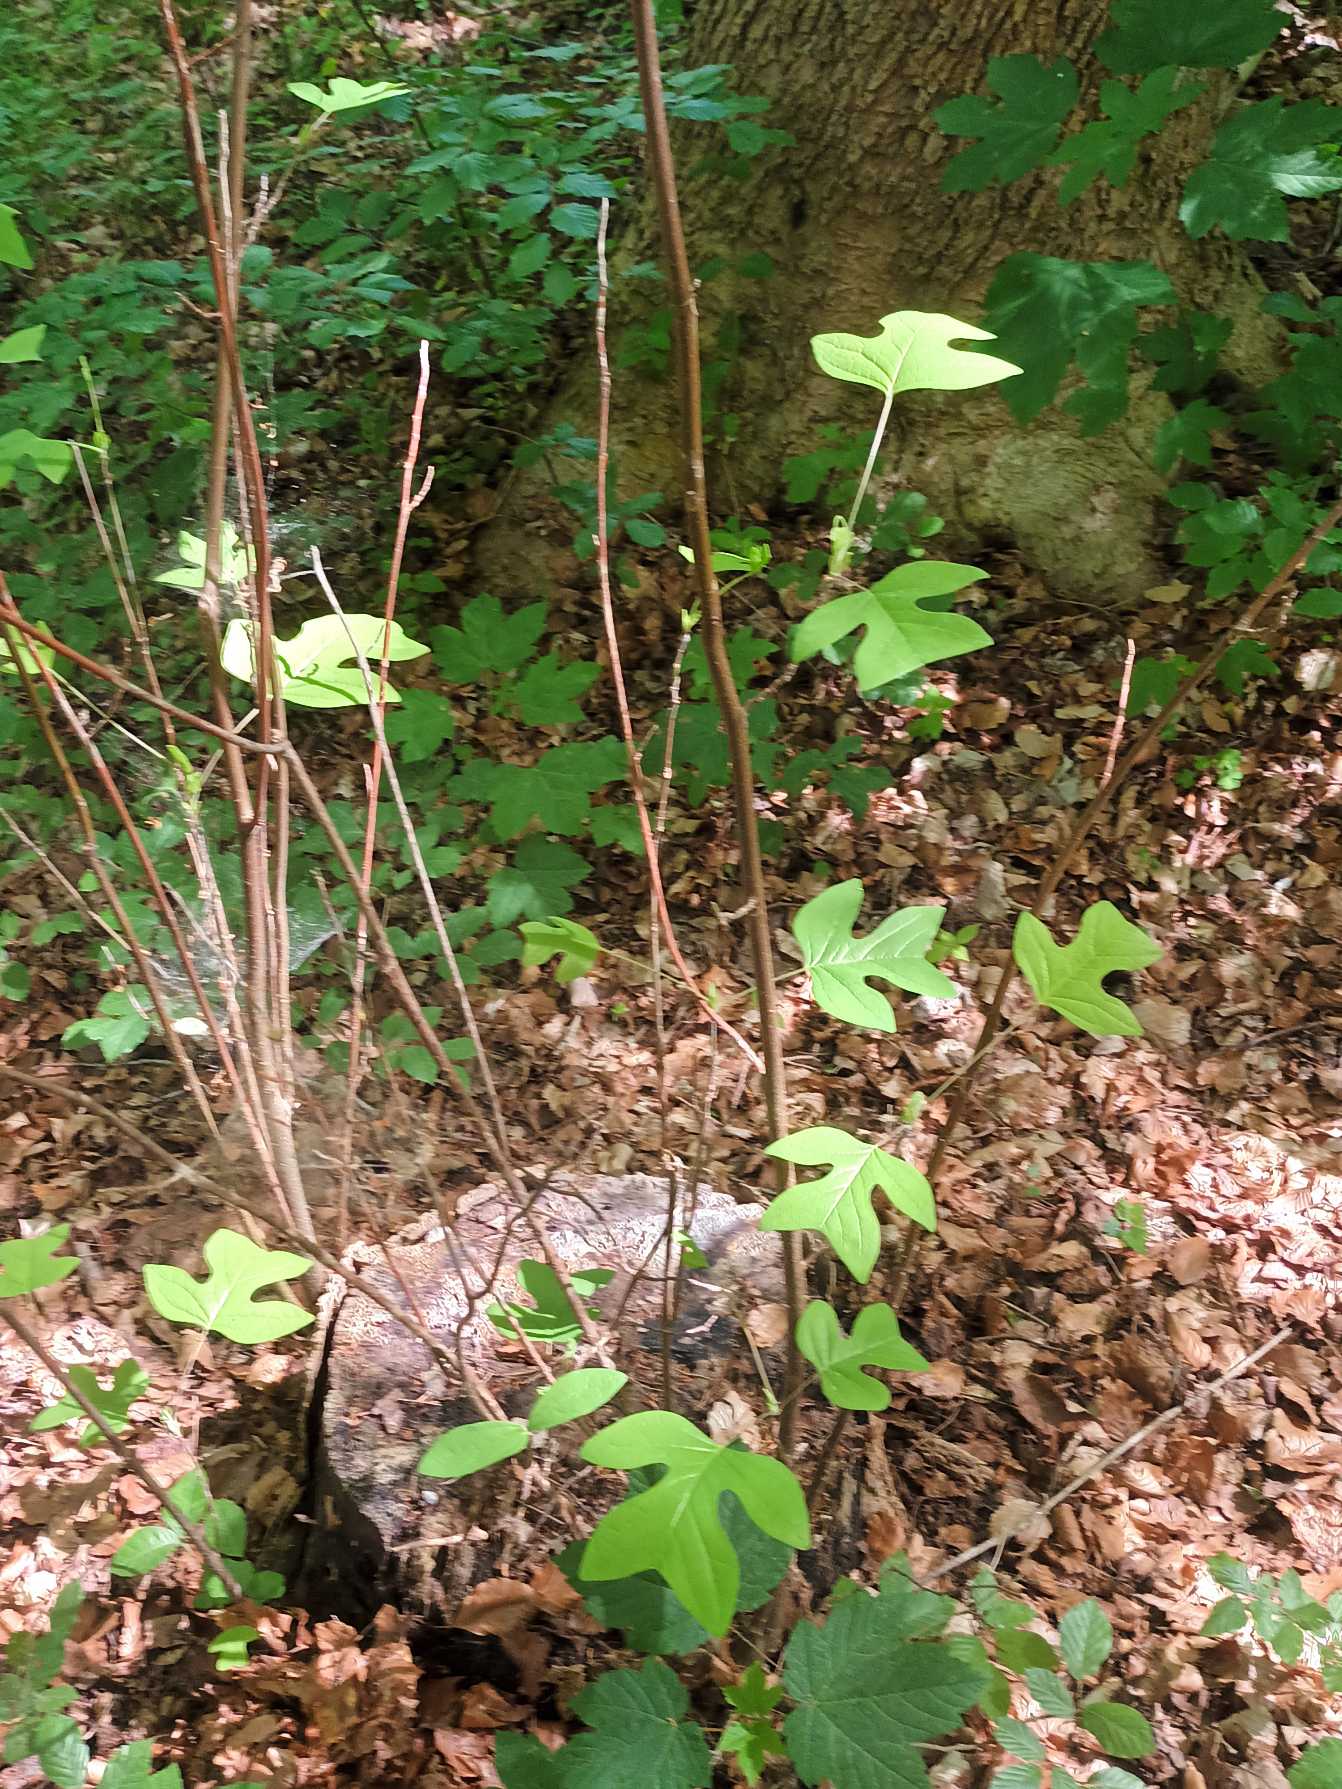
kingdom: Plantae
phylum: Tracheophyta
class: Magnoliopsida
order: Magnoliales
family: Magnoliaceae
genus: Liriodendron
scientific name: Liriodendron tulipifera
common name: Tulipantræ
